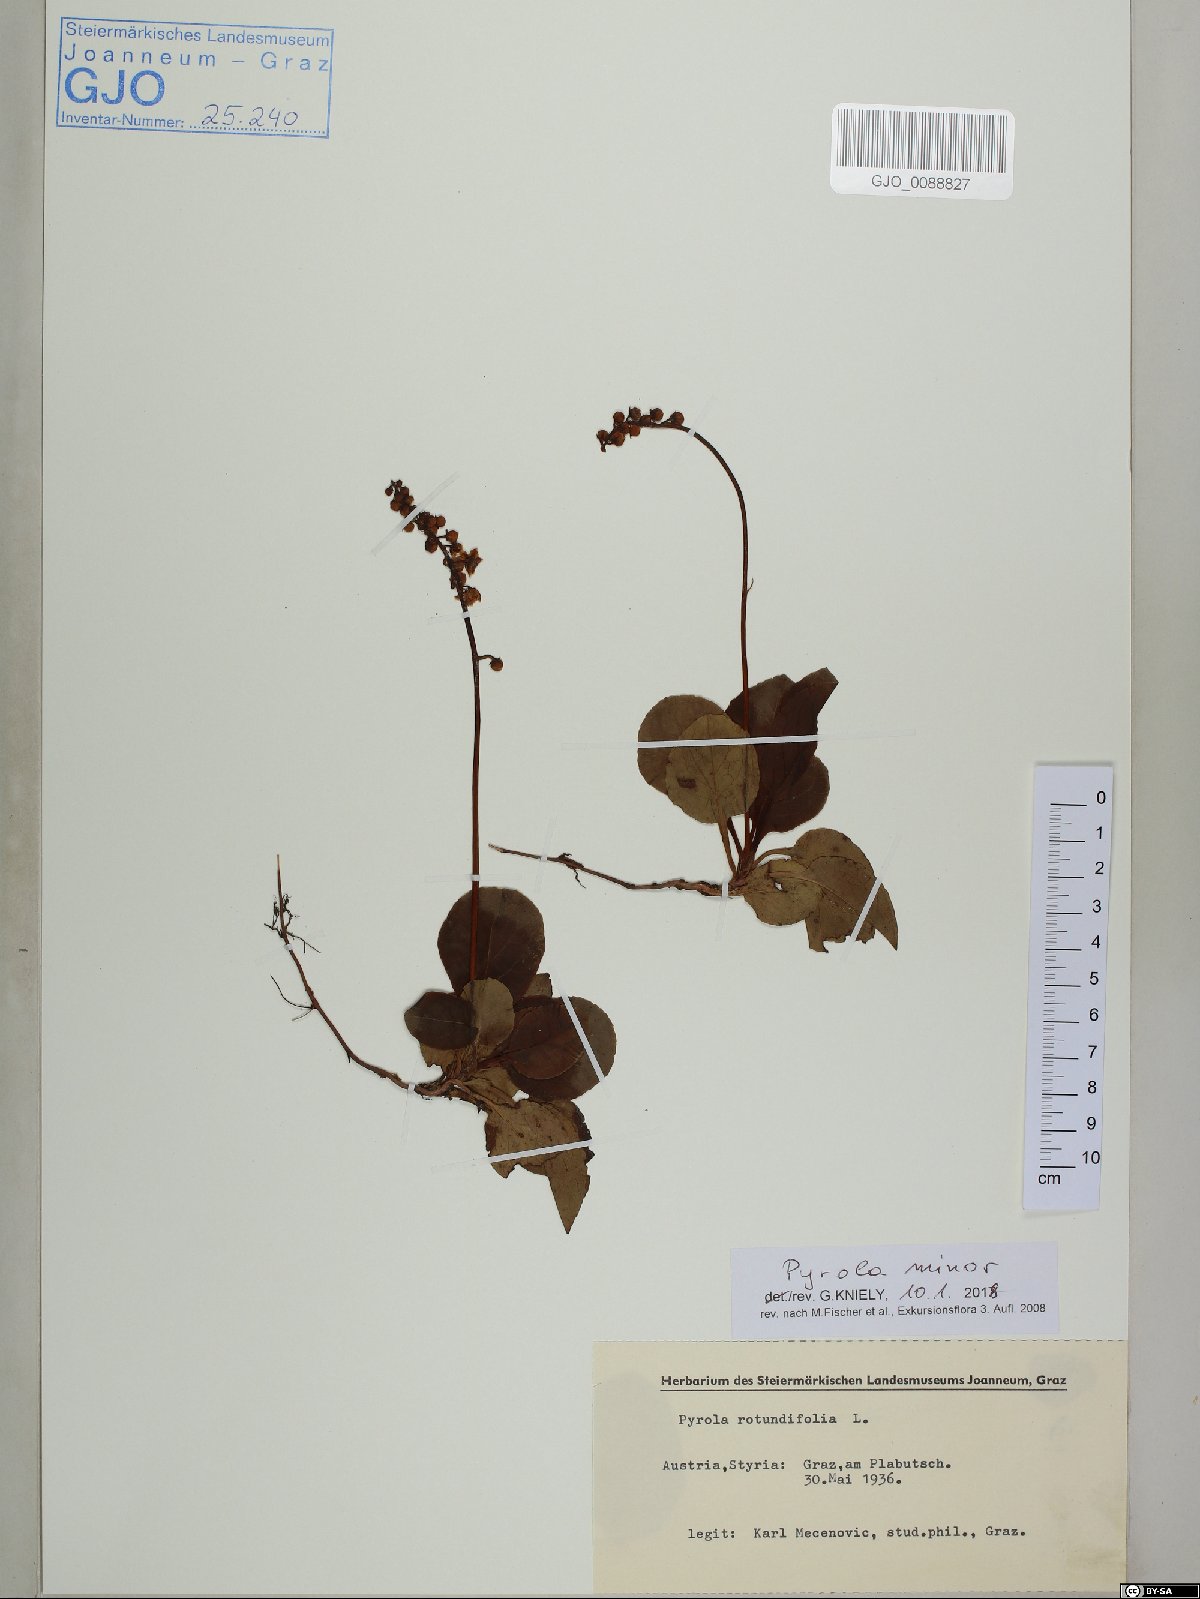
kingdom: Plantae
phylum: Tracheophyta
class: Magnoliopsida
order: Ericales
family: Ericaceae
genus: Pyrola
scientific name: Pyrola minor
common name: Common wintergreen
